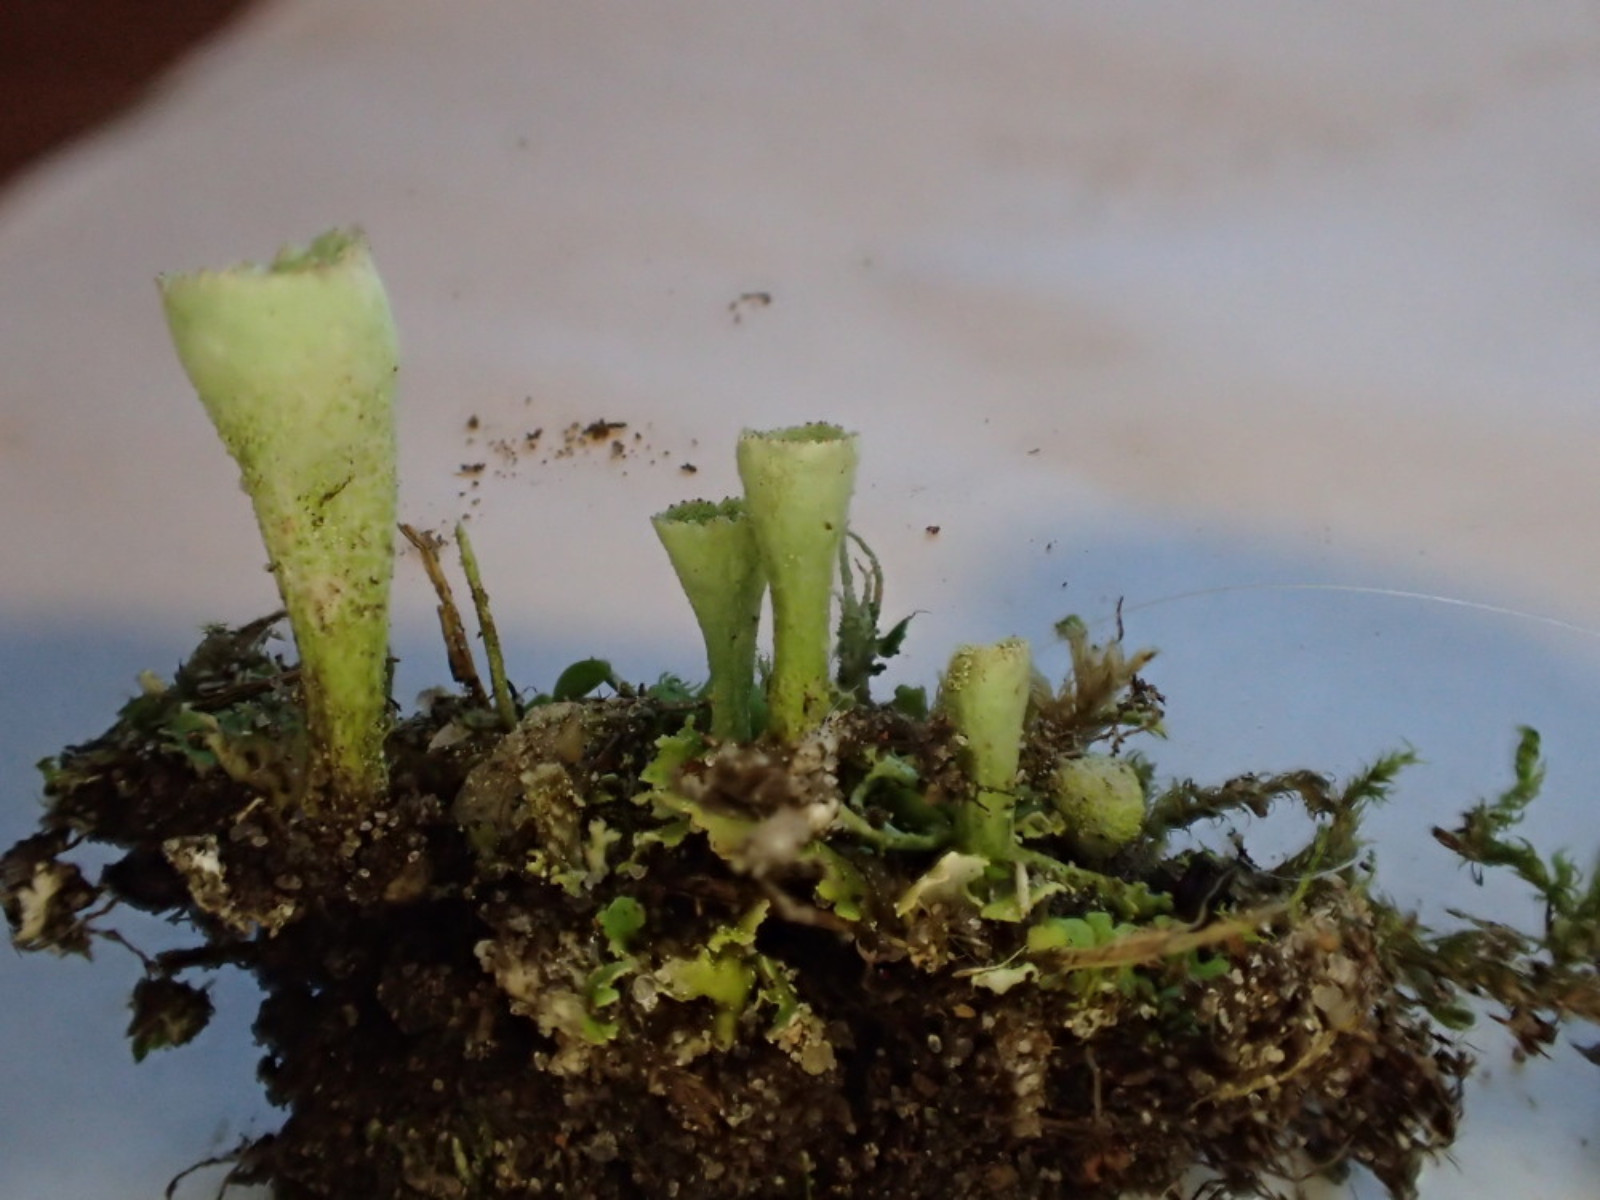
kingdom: Fungi
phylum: Ascomycota
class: Lecanoromycetes
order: Lecanorales
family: Cladoniaceae
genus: Cladonia
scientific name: Cladonia humilis
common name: lav bægerlav
